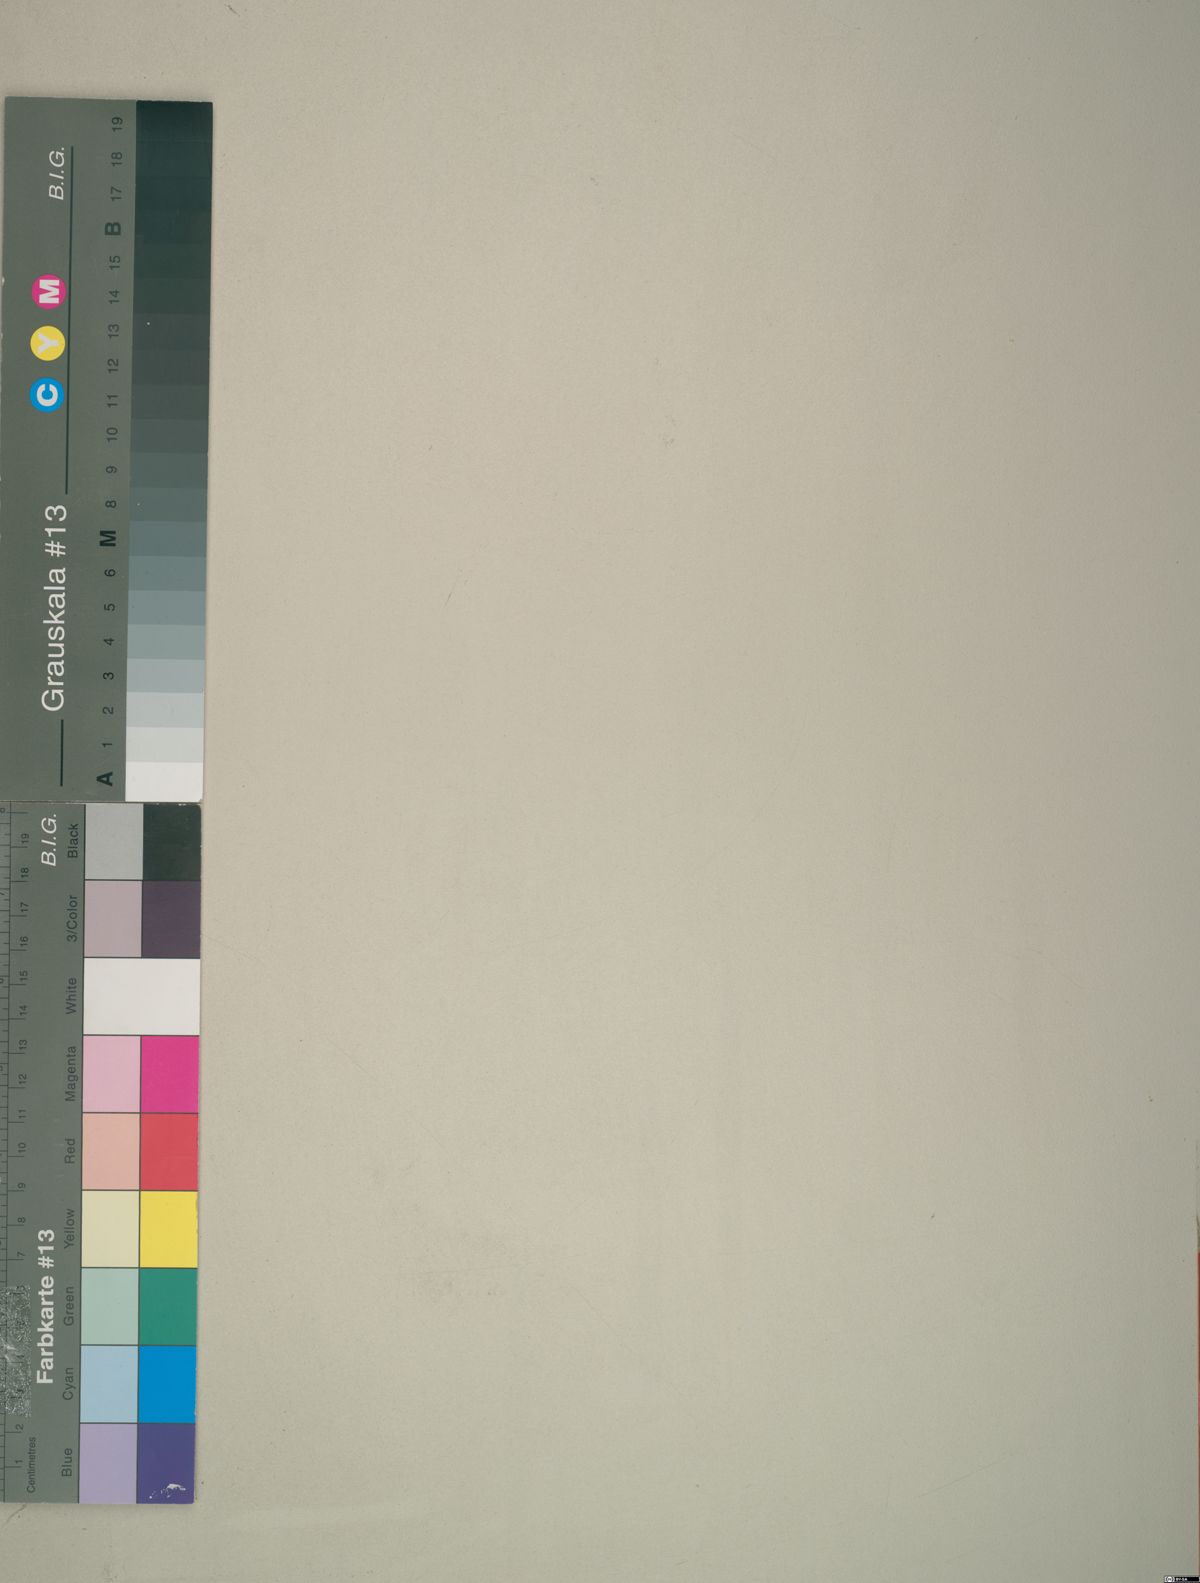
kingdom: Plantae
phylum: Tracheophyta
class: Liliopsida
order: Poales
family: Poaceae
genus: Stipa
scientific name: Stipa orientalis
